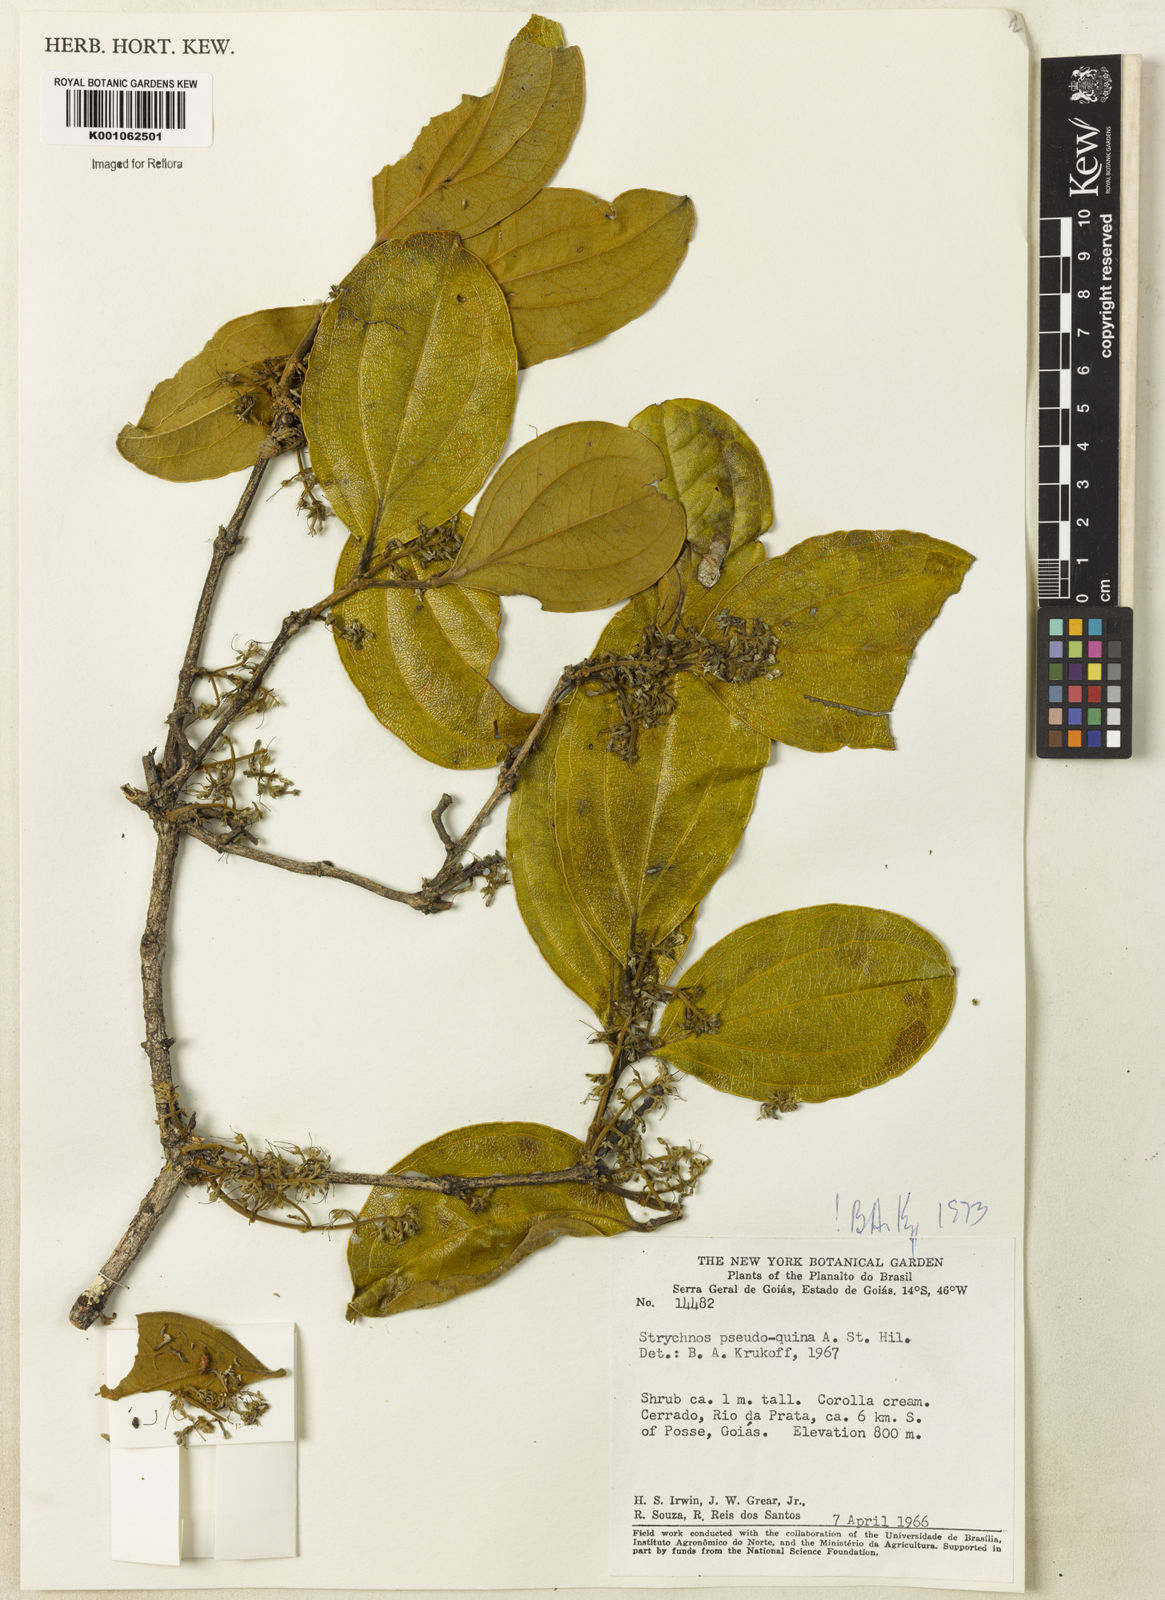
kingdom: Plantae
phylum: Tracheophyta
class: Magnoliopsida
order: Gentianales
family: Loganiaceae
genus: Strychnos
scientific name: Strychnos pseudoquina
